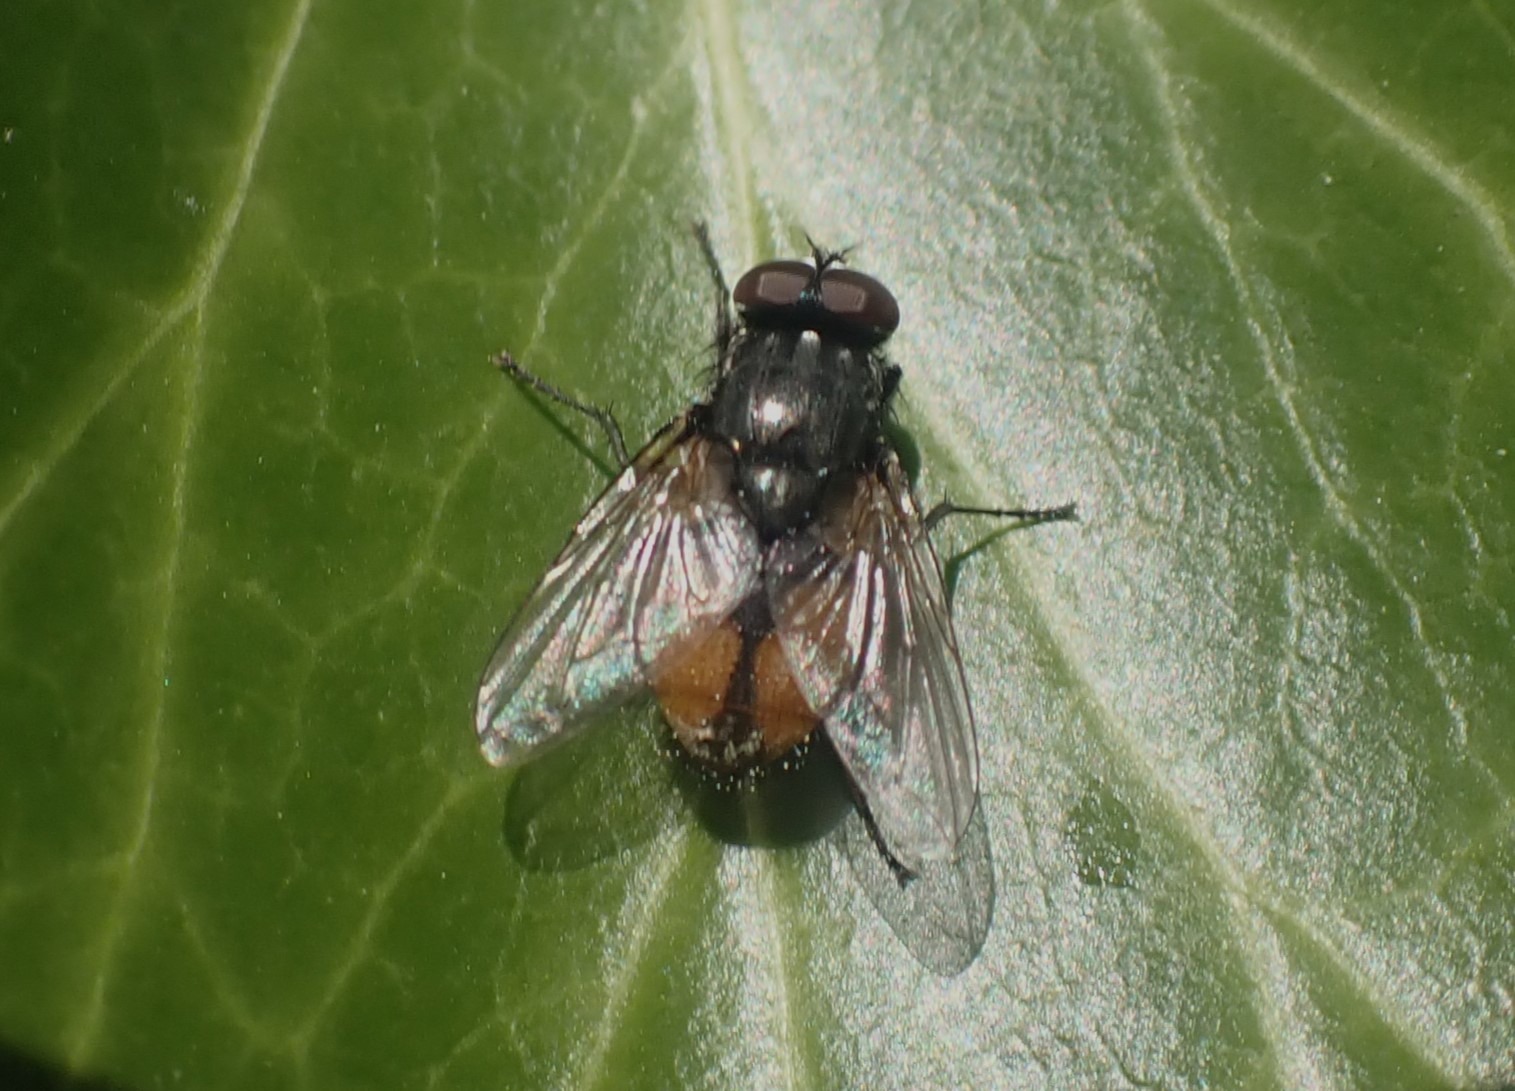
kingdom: Animalia
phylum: Arthropoda
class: Insecta
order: Diptera
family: Muscidae
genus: Musca
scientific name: Musca autumnalis
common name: Kvægflue
